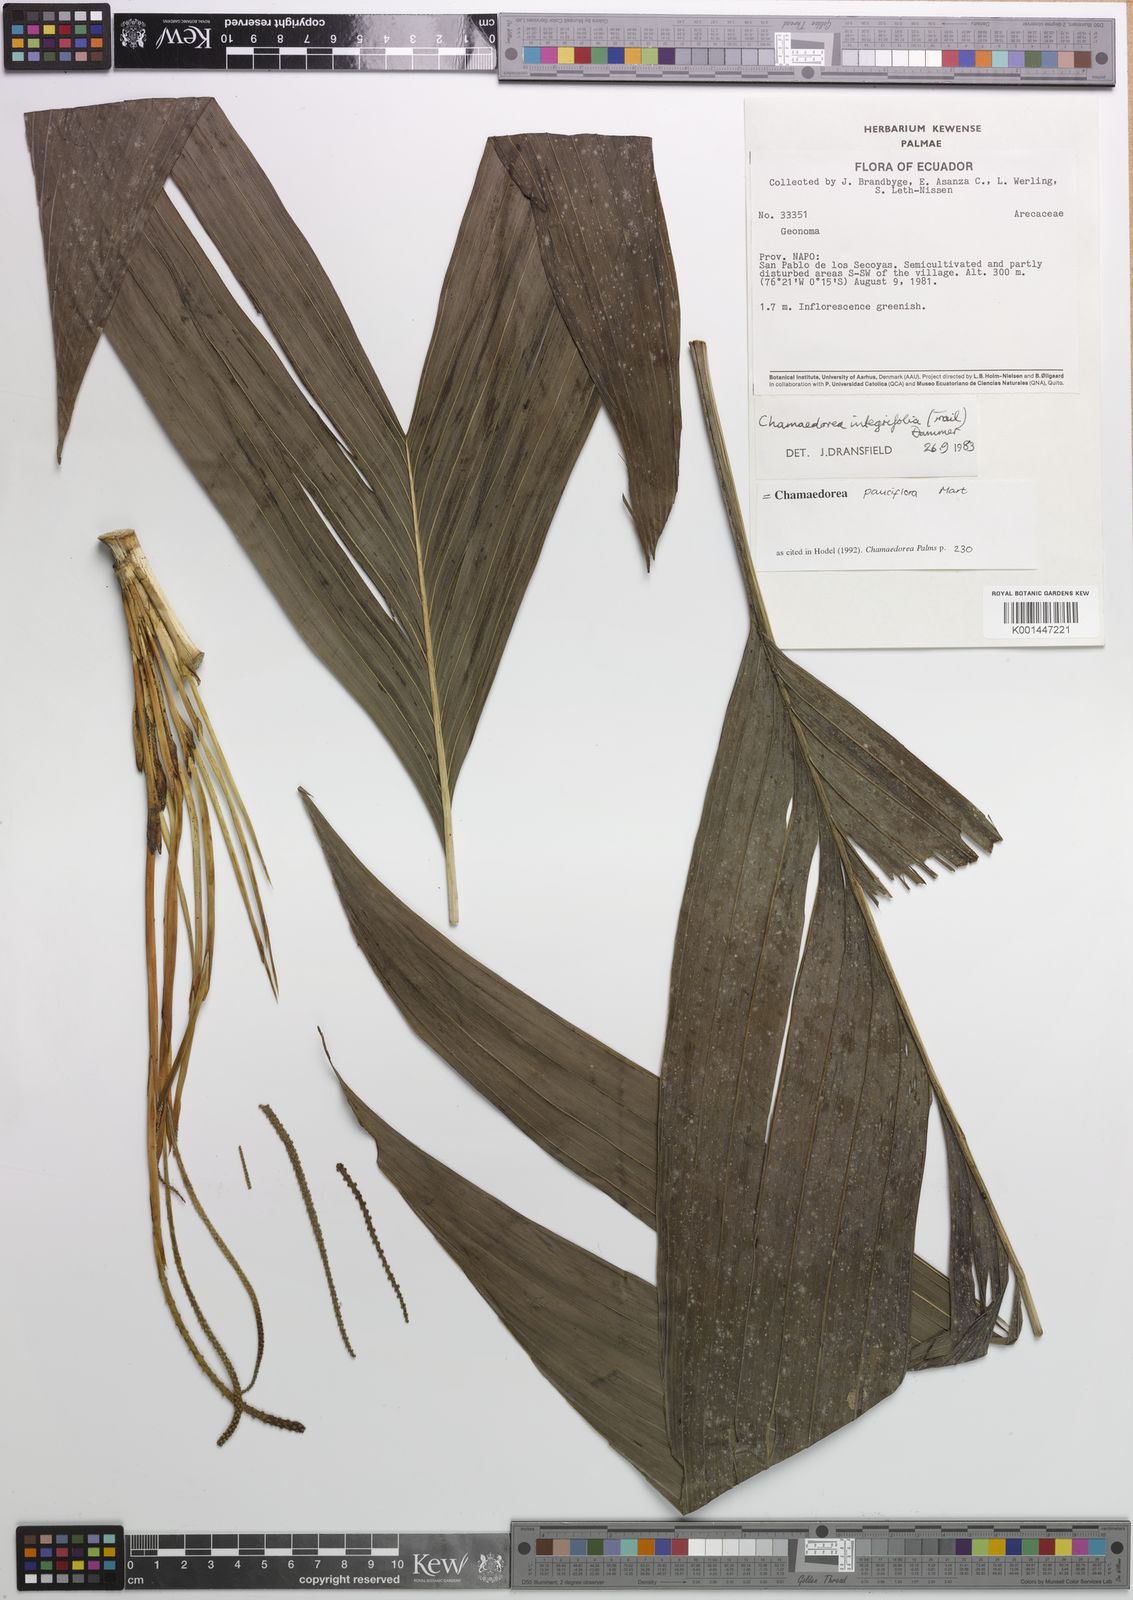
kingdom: Plantae
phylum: Tracheophyta
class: Liliopsida
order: Arecales
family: Arecaceae
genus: Chamaedorea
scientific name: Chamaedorea pauciflora
